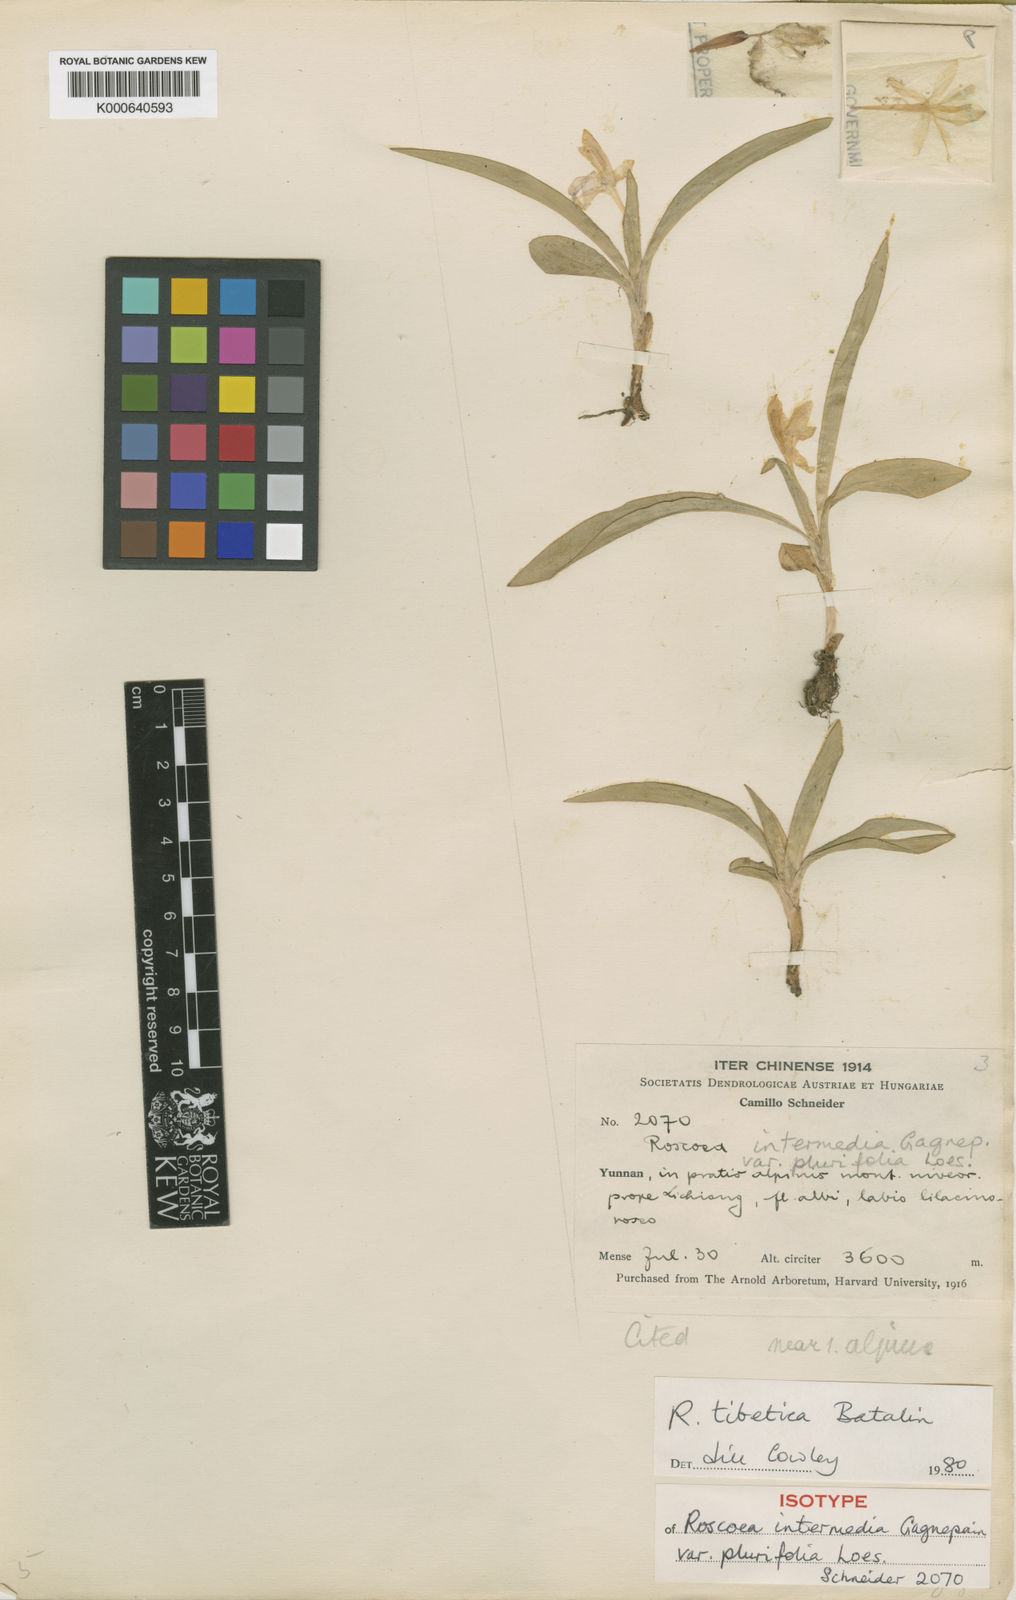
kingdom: Plantae
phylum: Tracheophyta
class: Liliopsida
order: Zingiberales
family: Zingiberaceae
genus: Roscoea
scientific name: Roscoea tibetica
